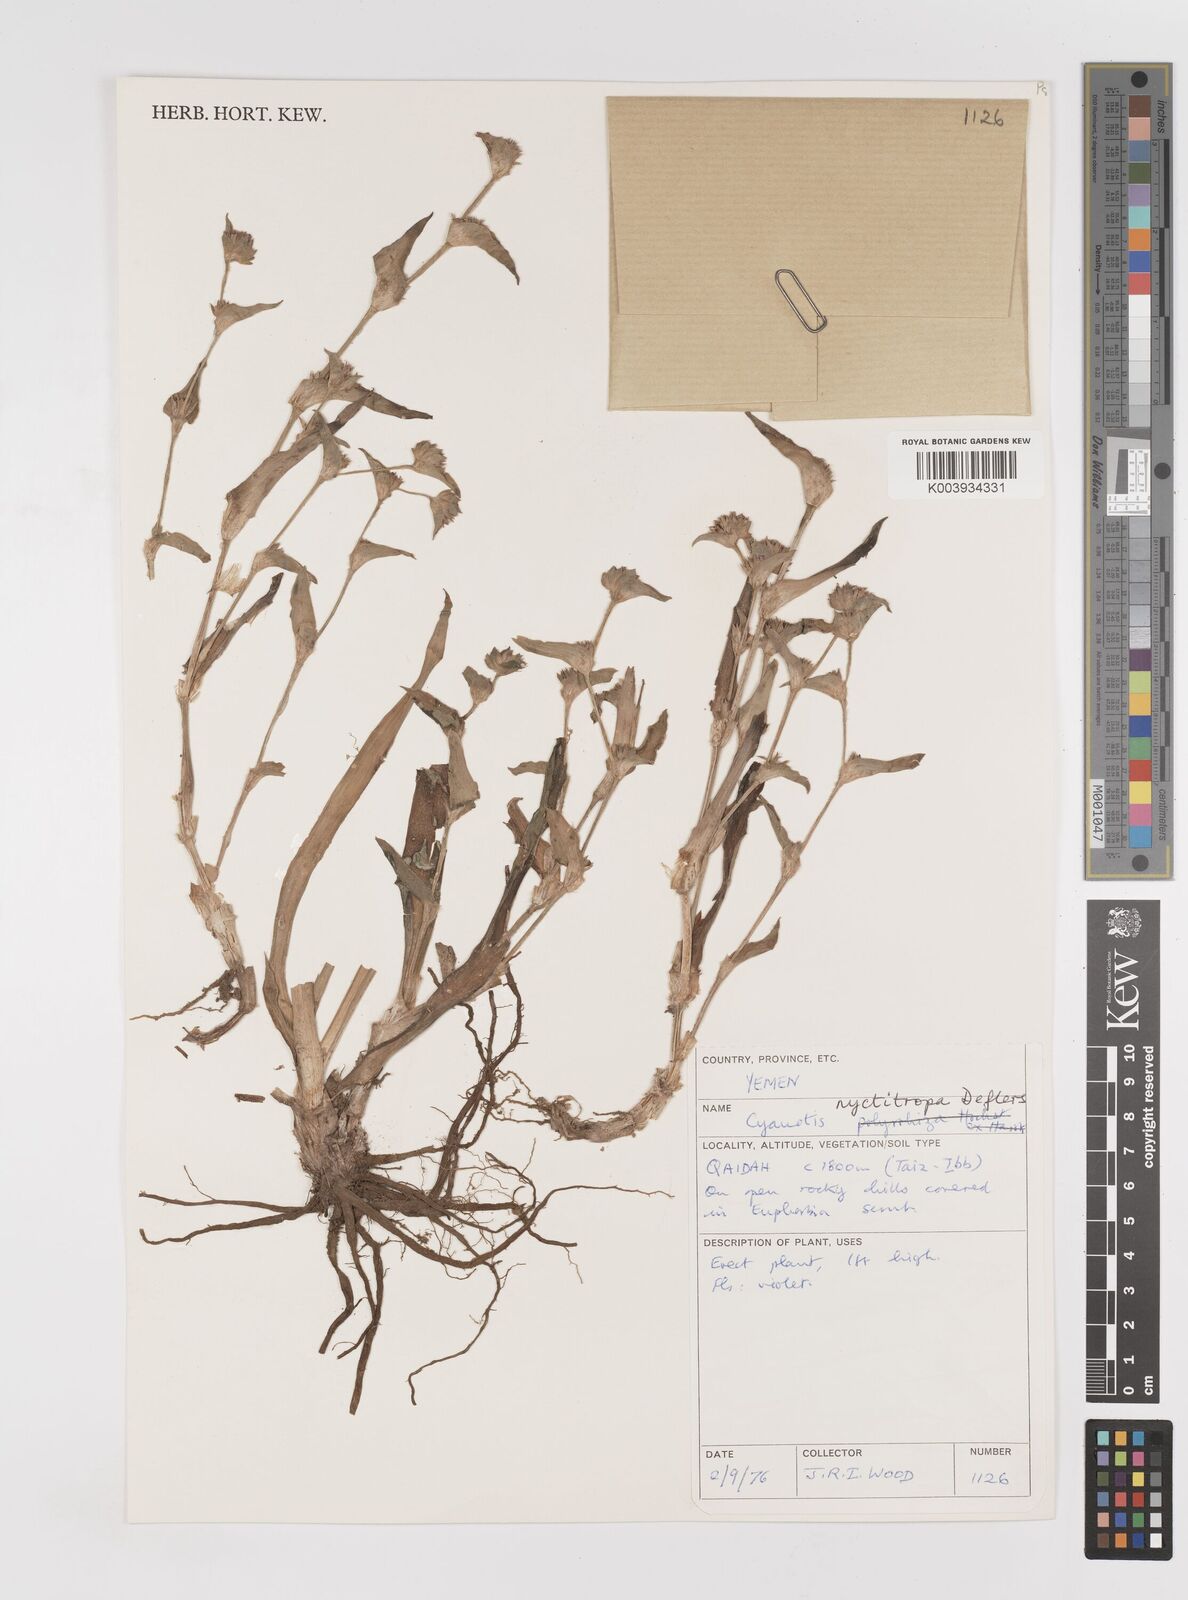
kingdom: Plantae
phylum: Tracheophyta
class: Liliopsida
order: Commelinales
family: Commelinaceae
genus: Cyanotis
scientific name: Cyanotis nyctitropa
